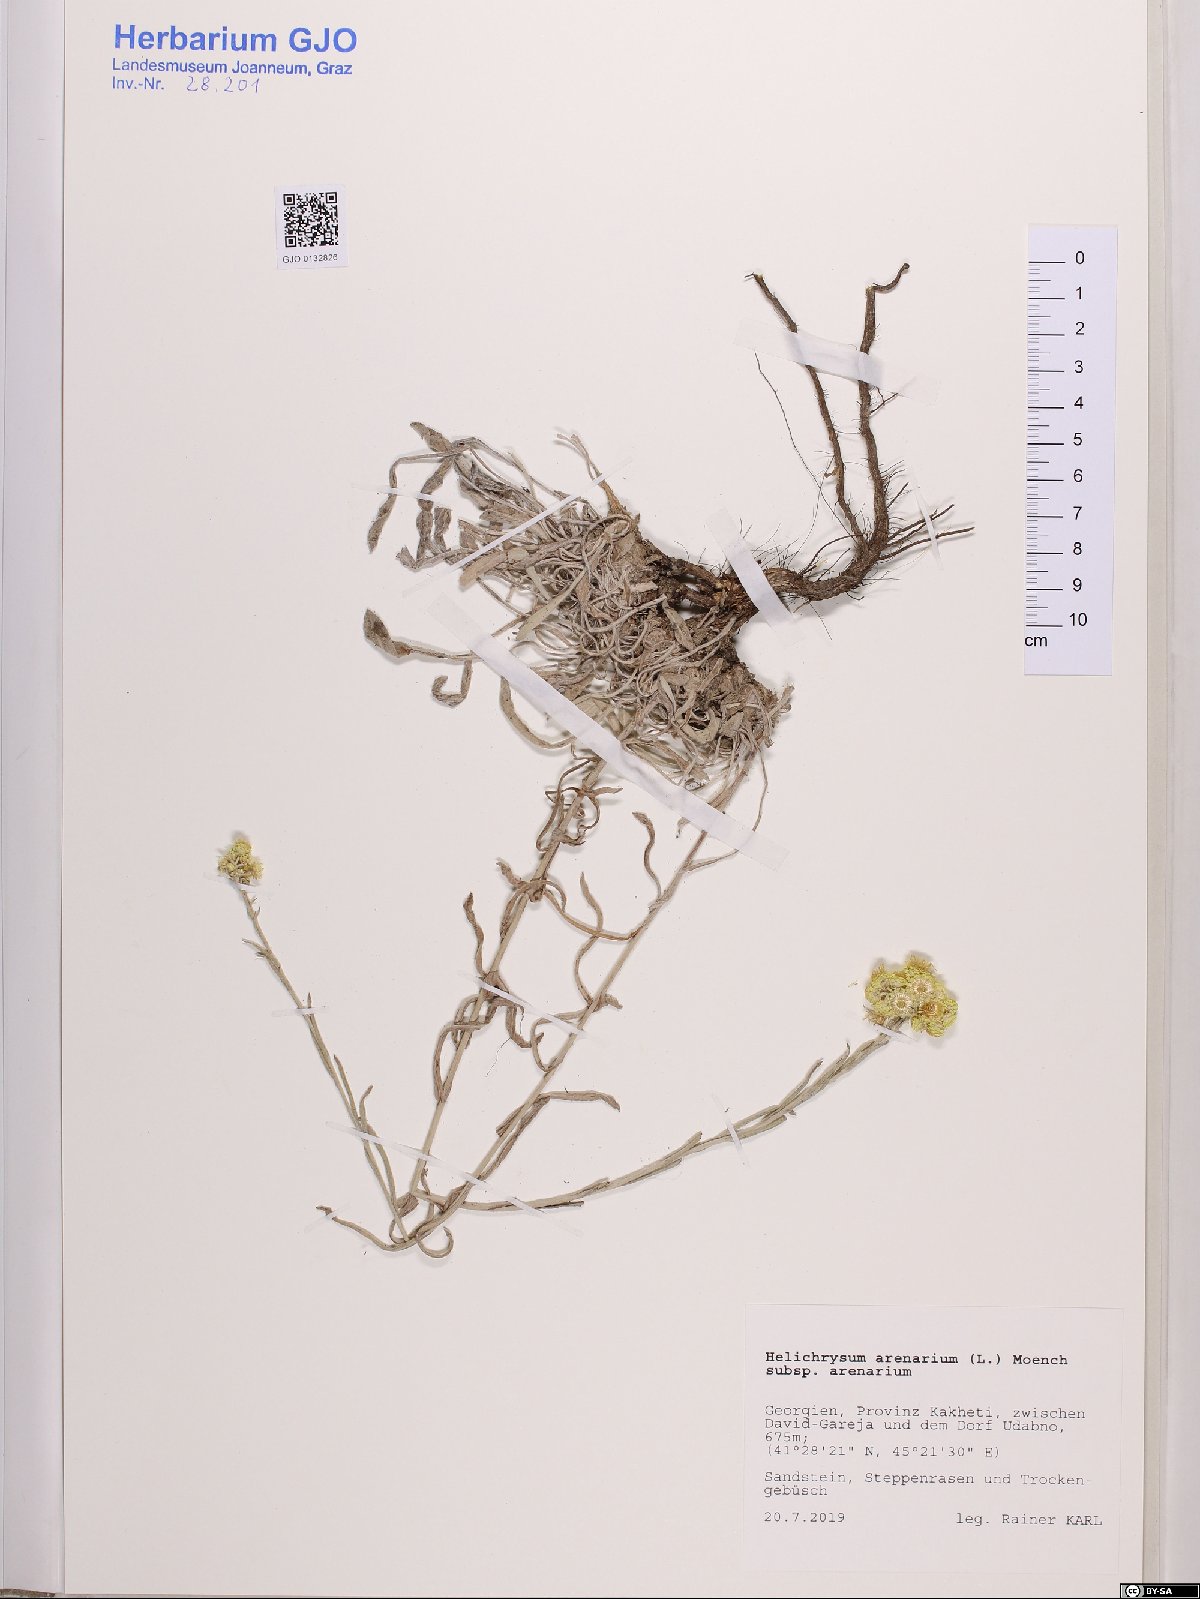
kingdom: Plantae
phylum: Tracheophyta
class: Magnoliopsida
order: Asterales
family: Asteraceae
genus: Helichrysum
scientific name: Helichrysum arenarium
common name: Strawflower
